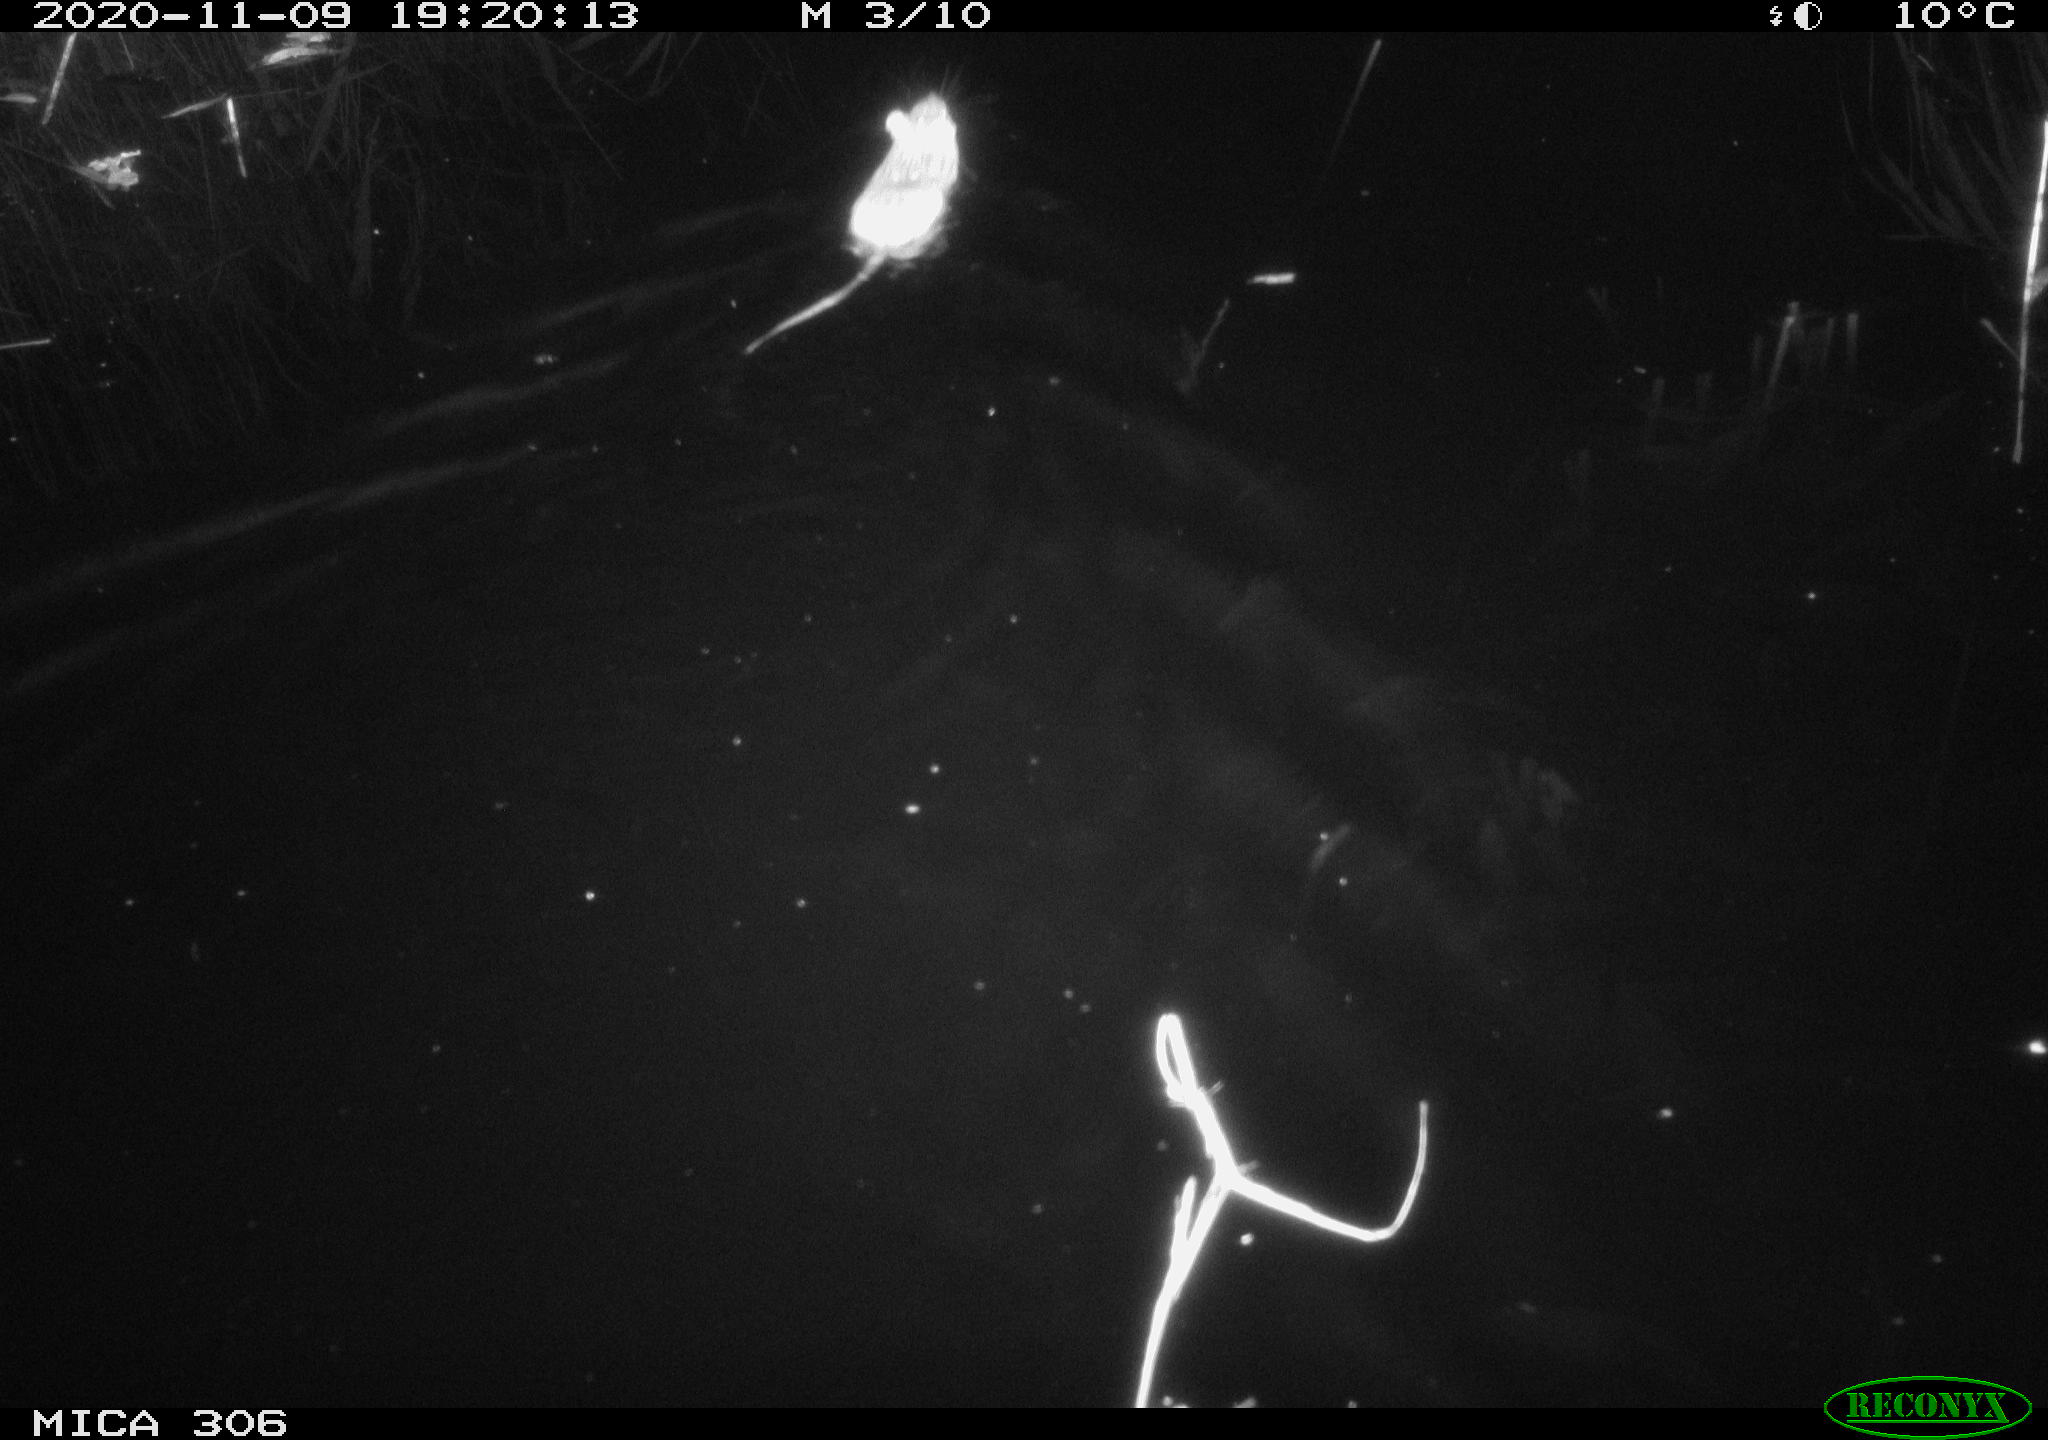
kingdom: Animalia
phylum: Chordata
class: Mammalia
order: Rodentia
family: Muridae
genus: Rattus
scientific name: Rattus norvegicus
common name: Brown rat
